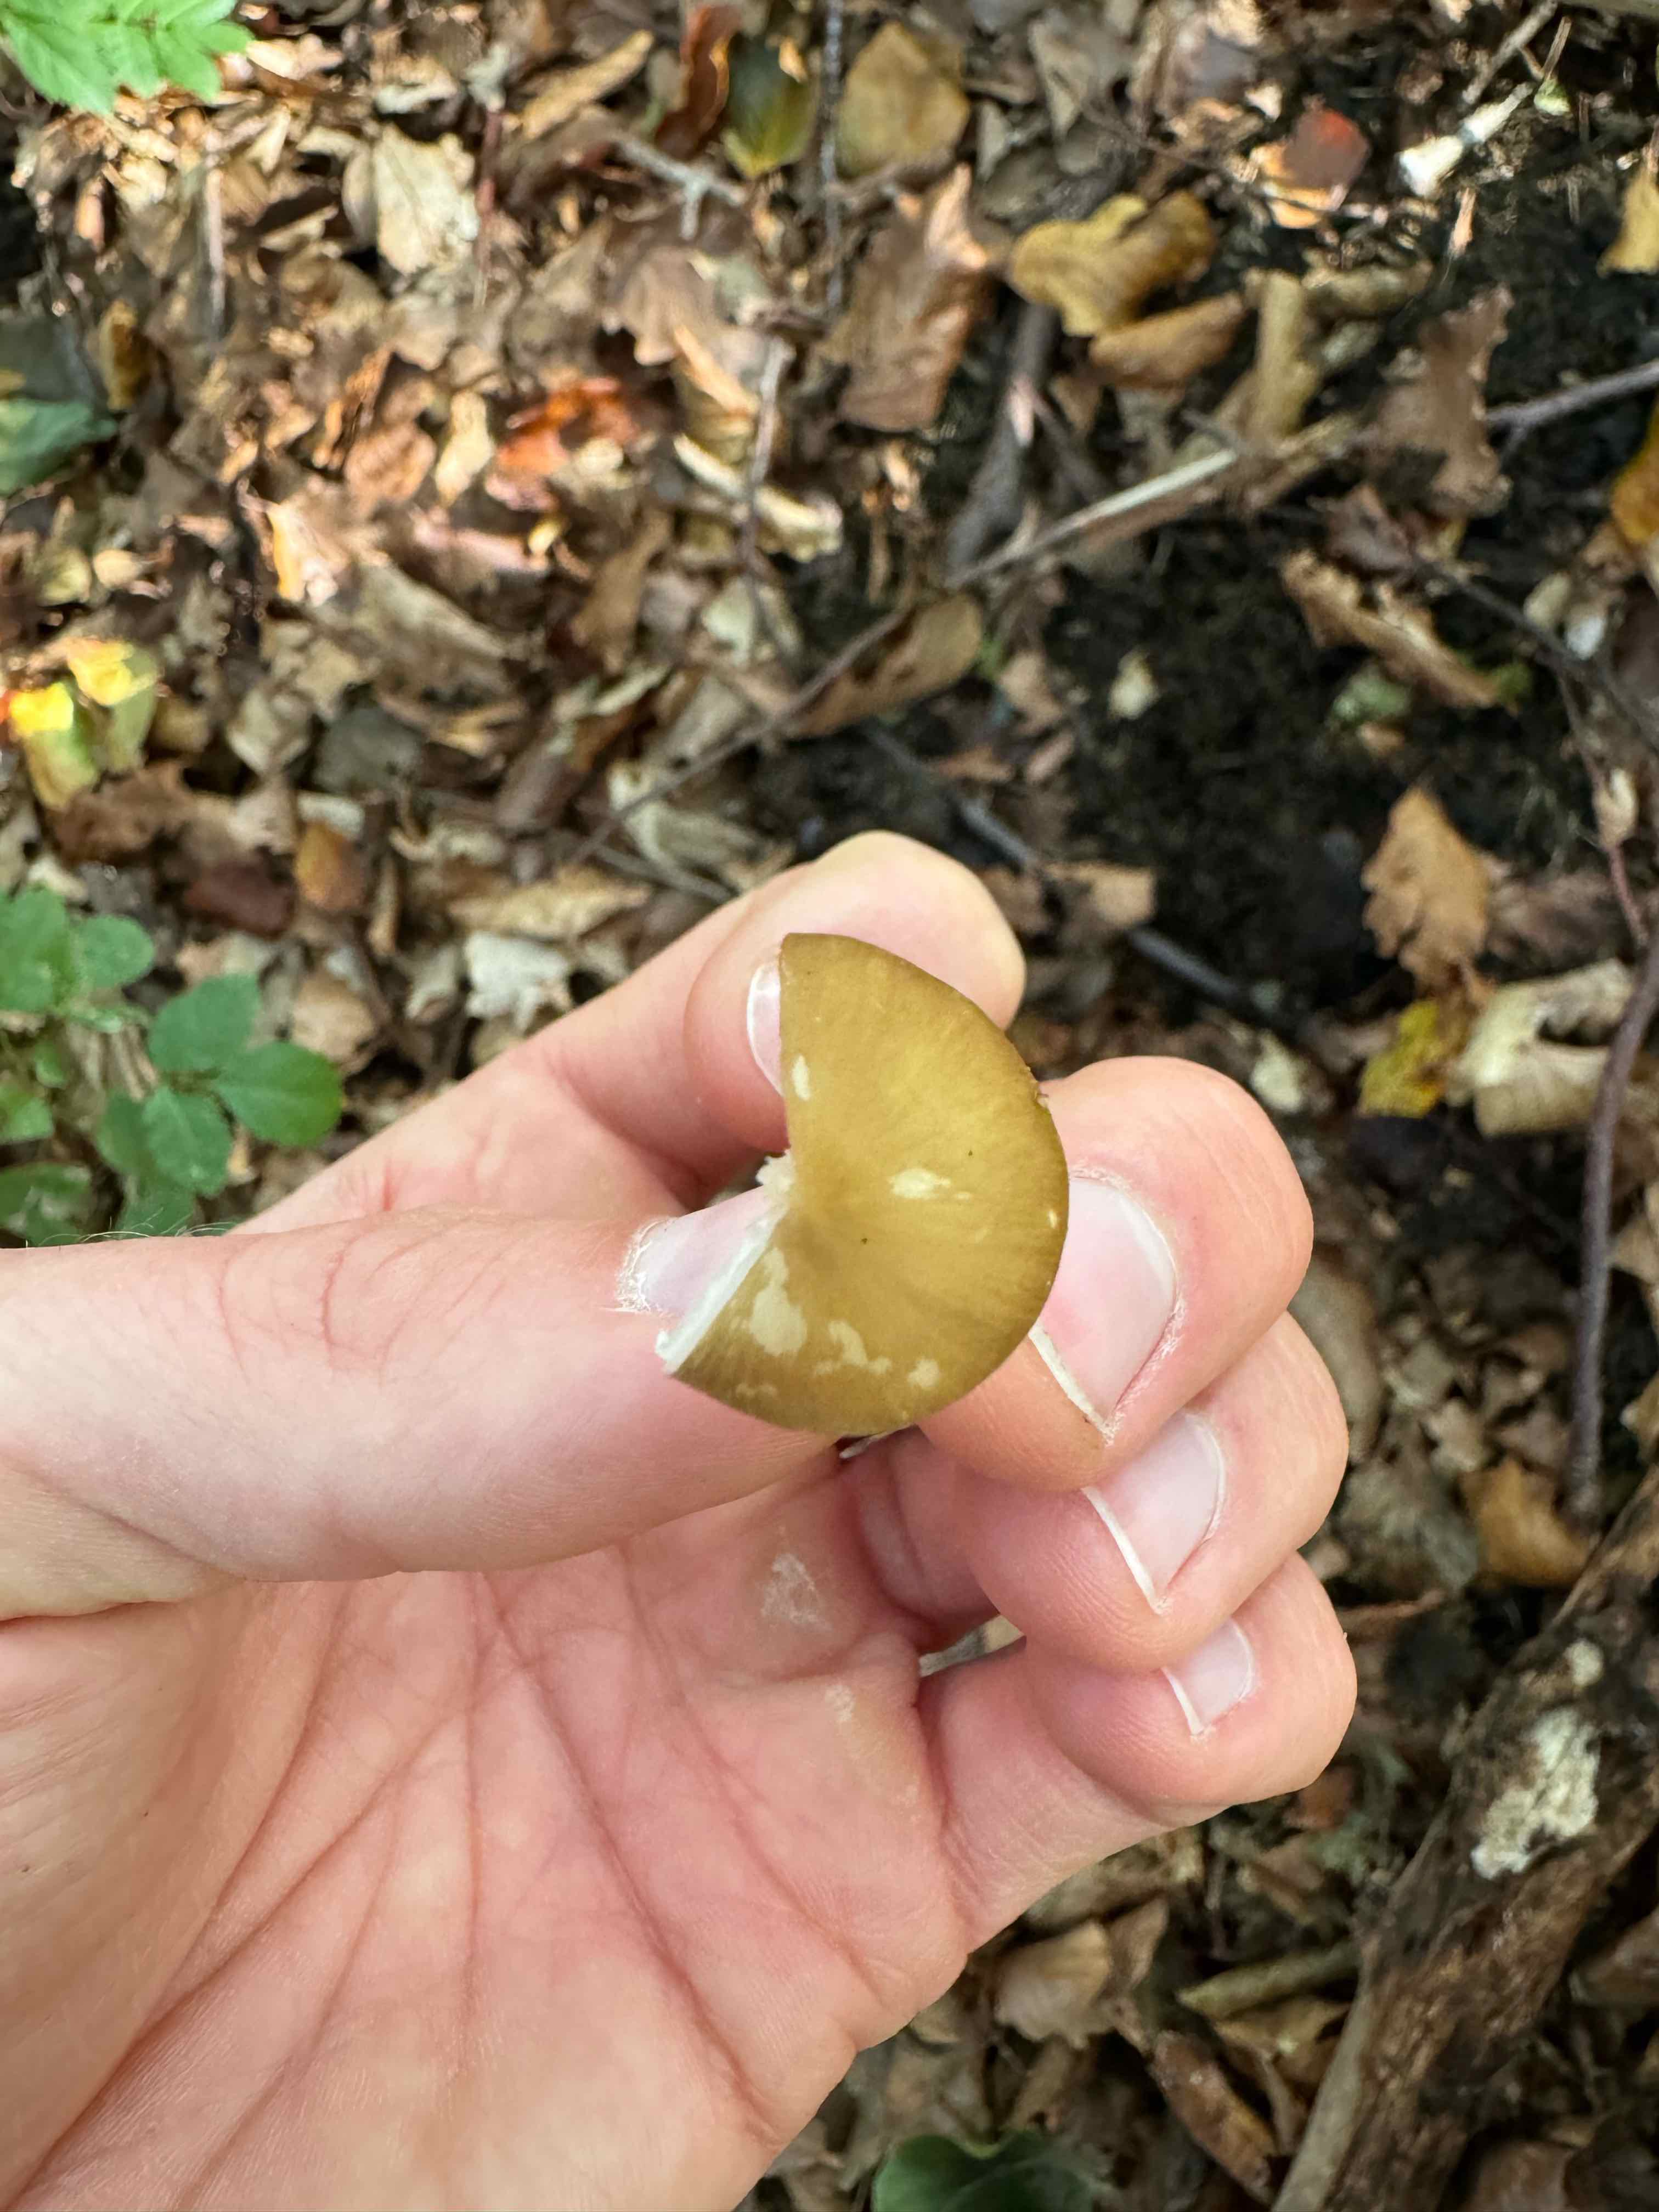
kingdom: Fungi
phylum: Basidiomycota
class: Agaricomycetes
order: Agaricales
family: Porotheleaceae
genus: Hydropodia
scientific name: Hydropodia subalpina
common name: vår-fnugfod
